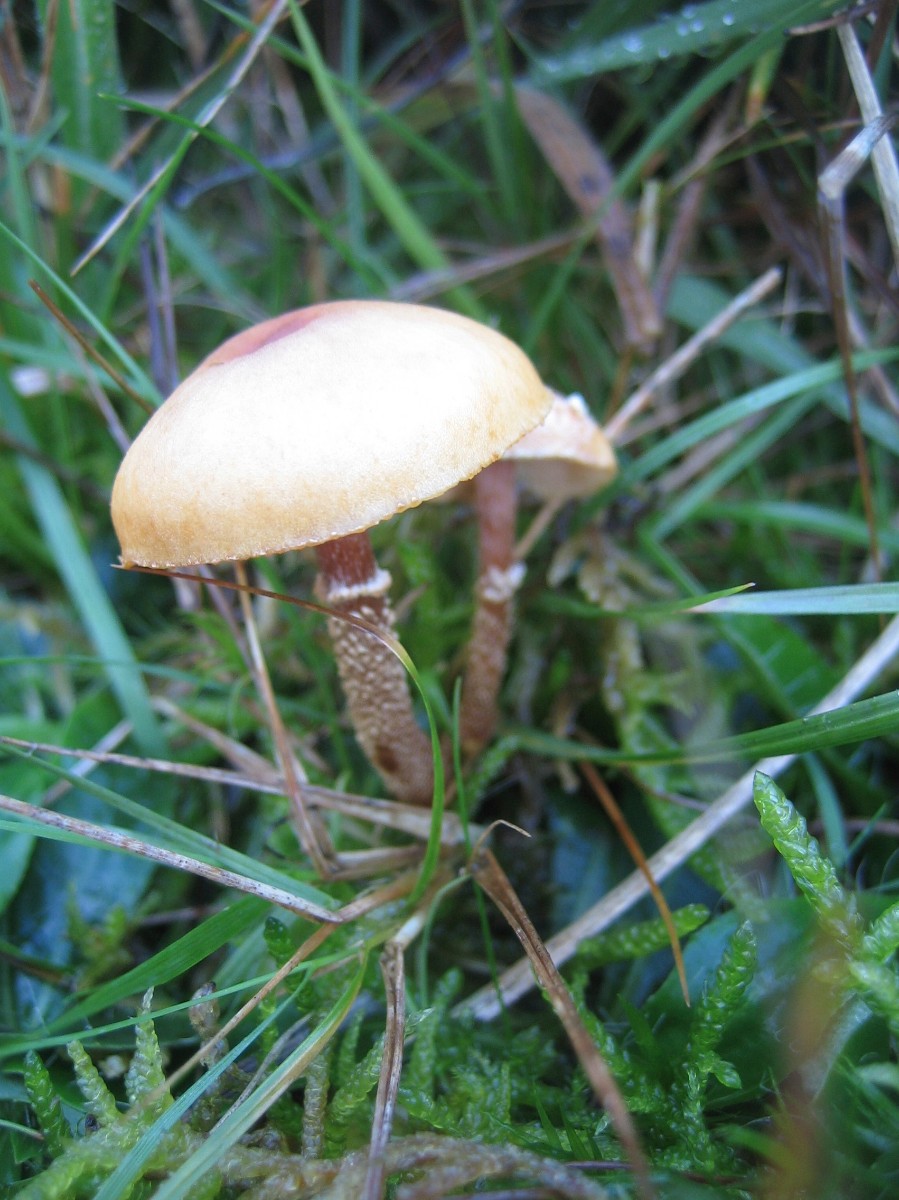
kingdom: Fungi
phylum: Basidiomycota
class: Agaricomycetes
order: Agaricales
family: Tricholomataceae
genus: Cystoderma
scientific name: Cystoderma amianthinum
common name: okkergul grynhat
